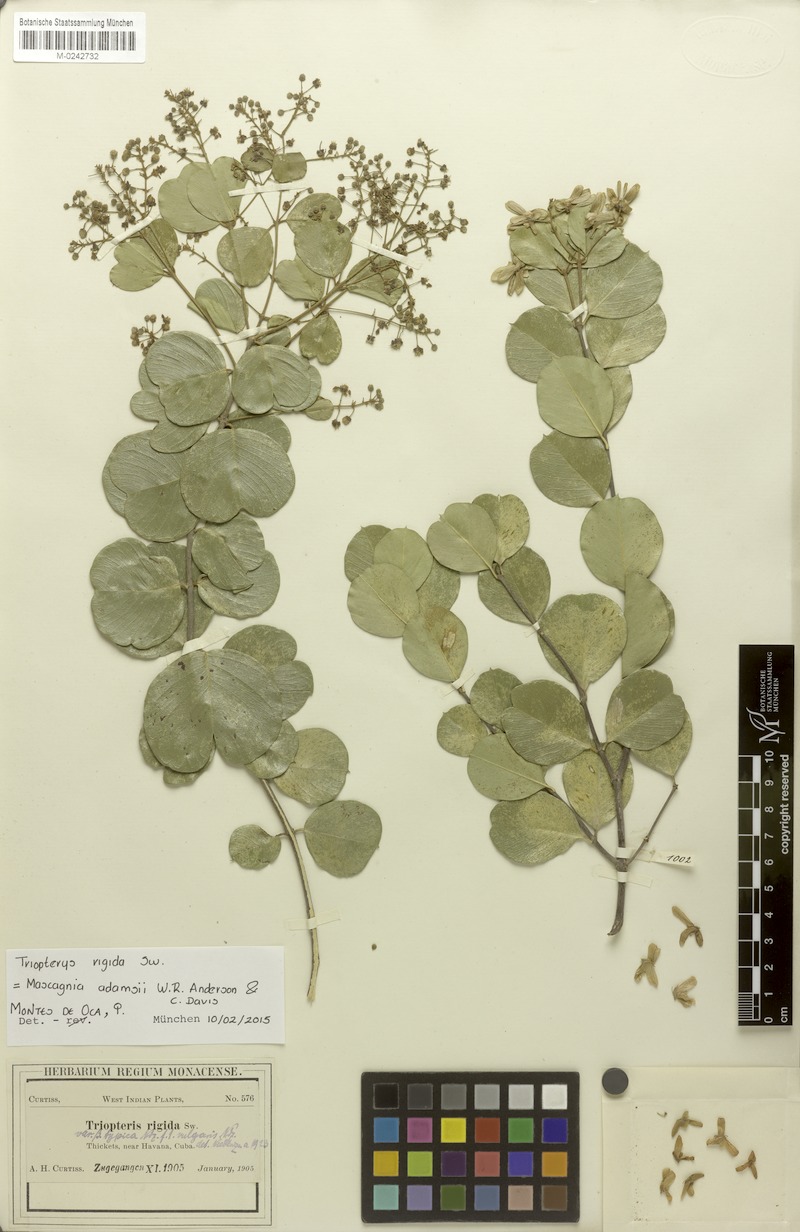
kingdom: Plantae
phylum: Tracheophyta
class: Magnoliopsida
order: Malpighiales
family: Malpighiaceae
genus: Mascagnia
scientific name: Mascagnia adamsii
